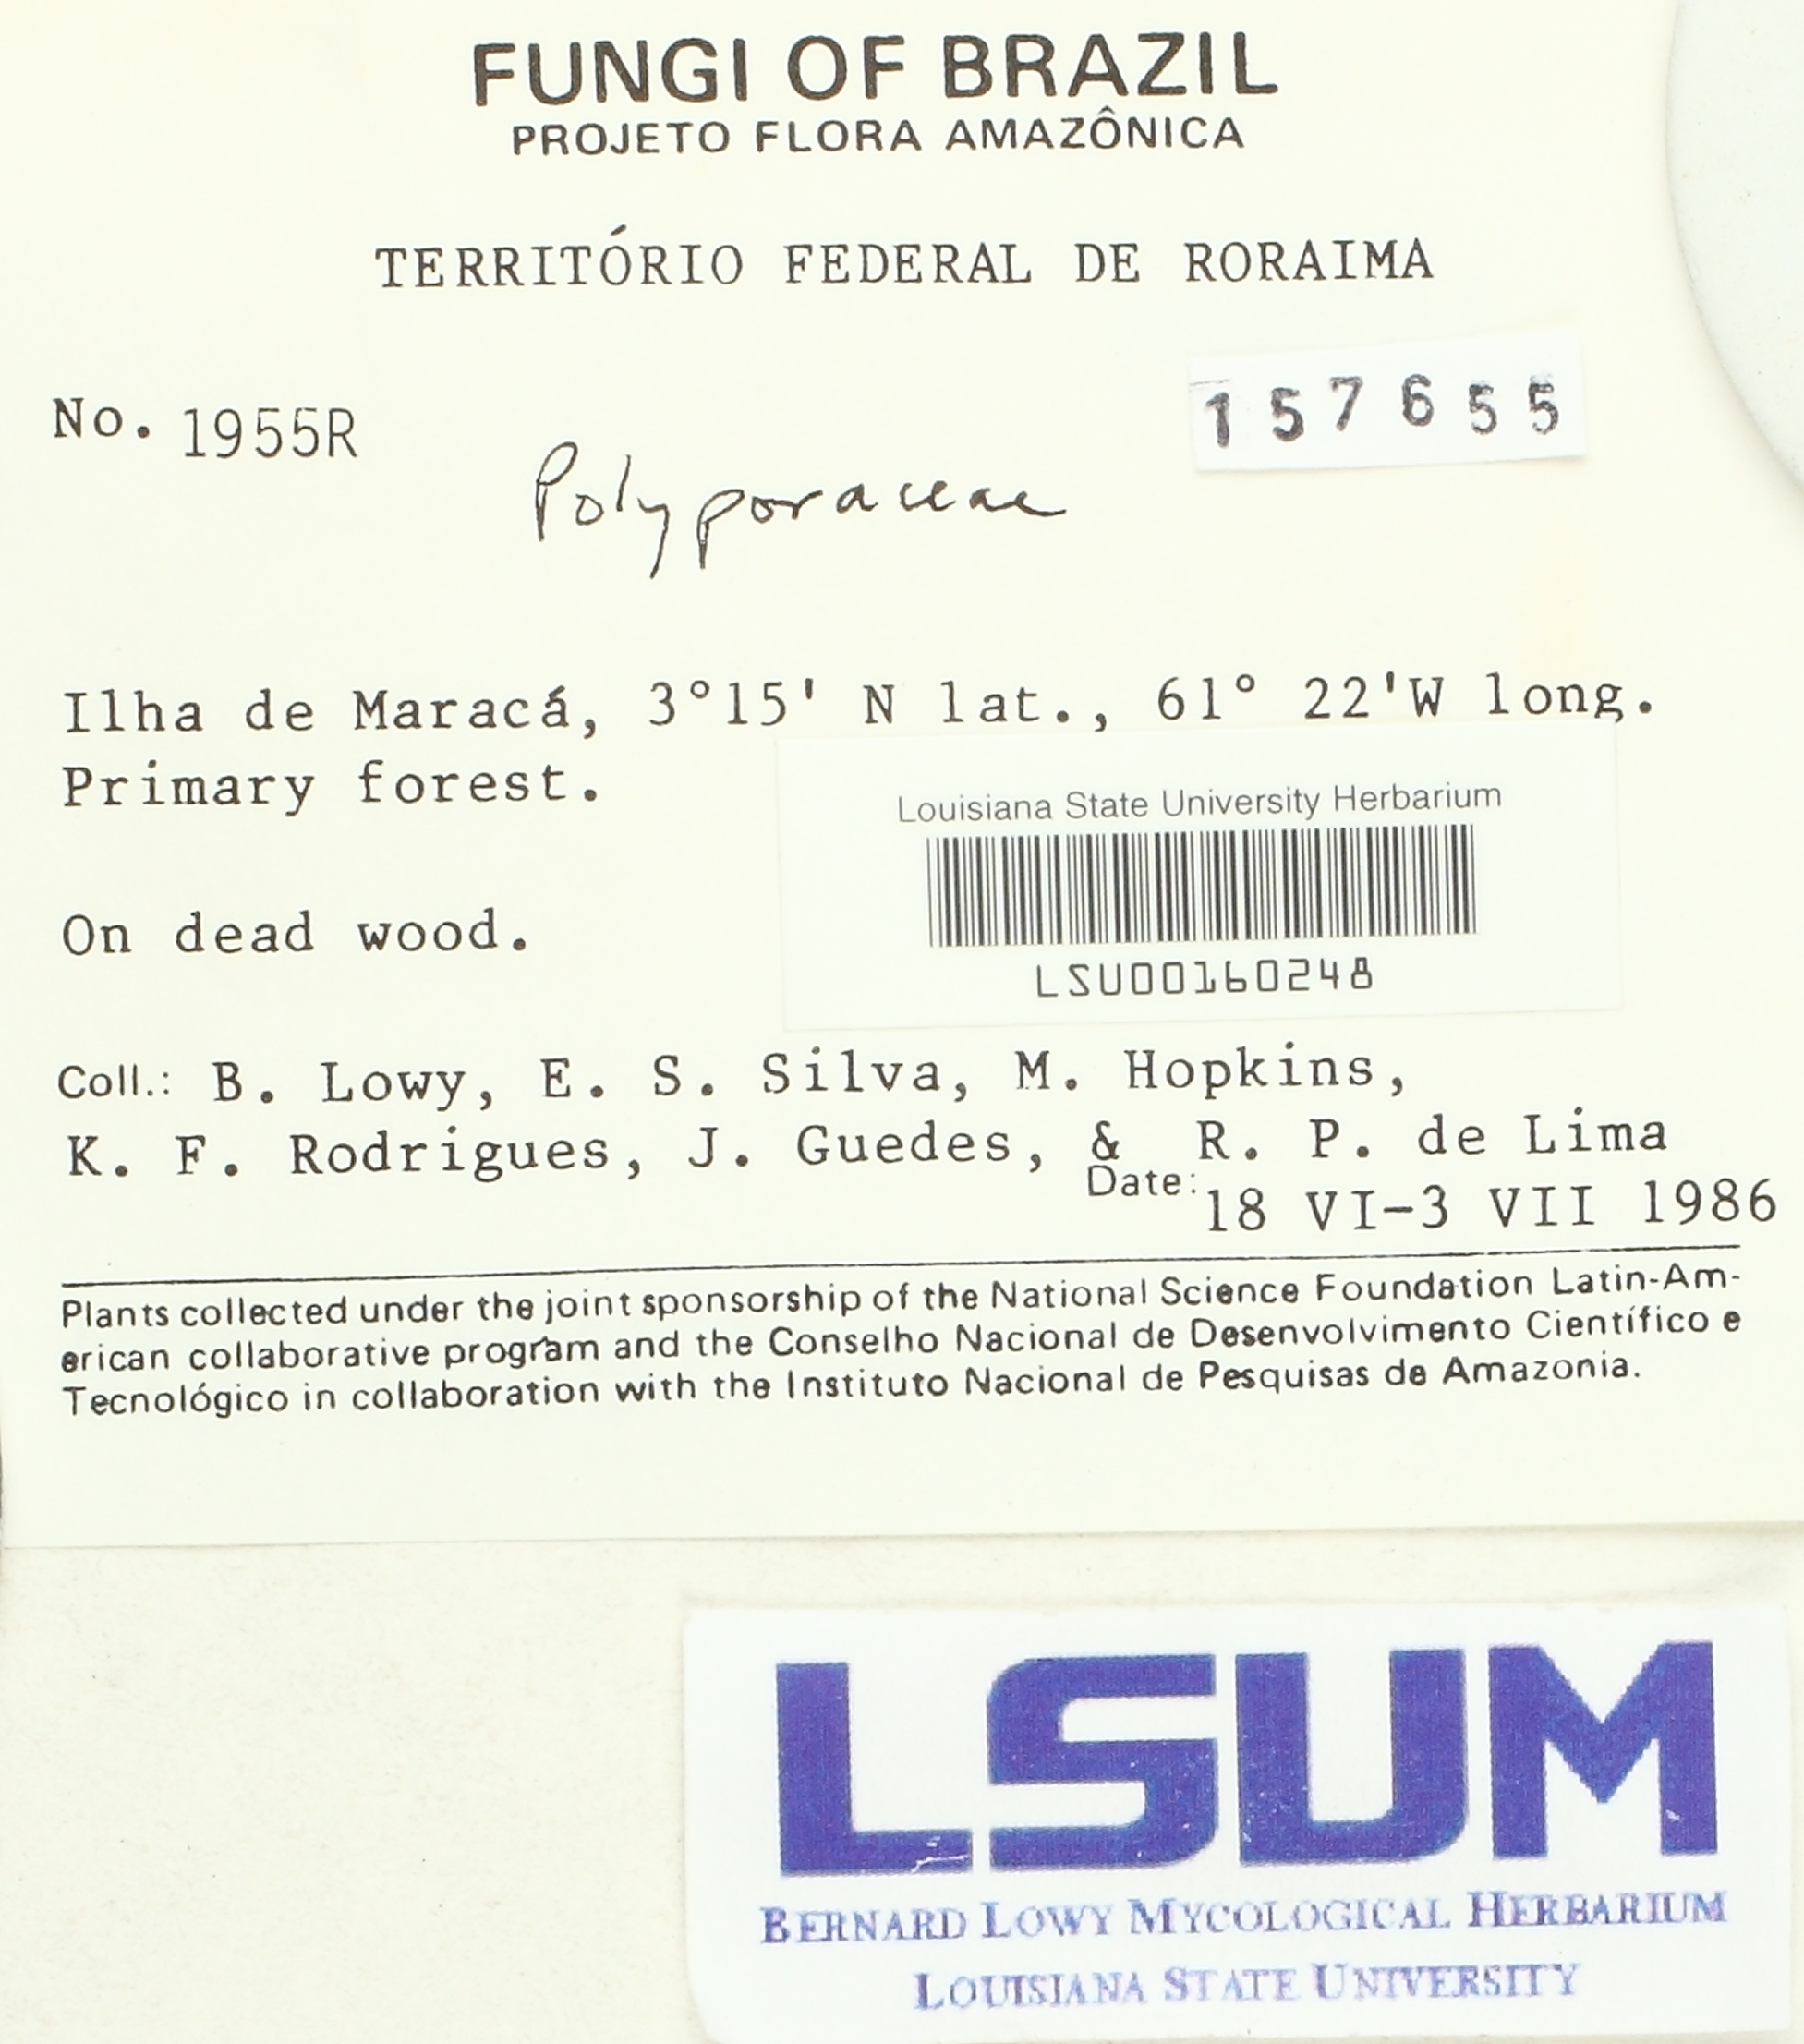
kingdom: Fungi
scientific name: Fungi
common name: Fungi
